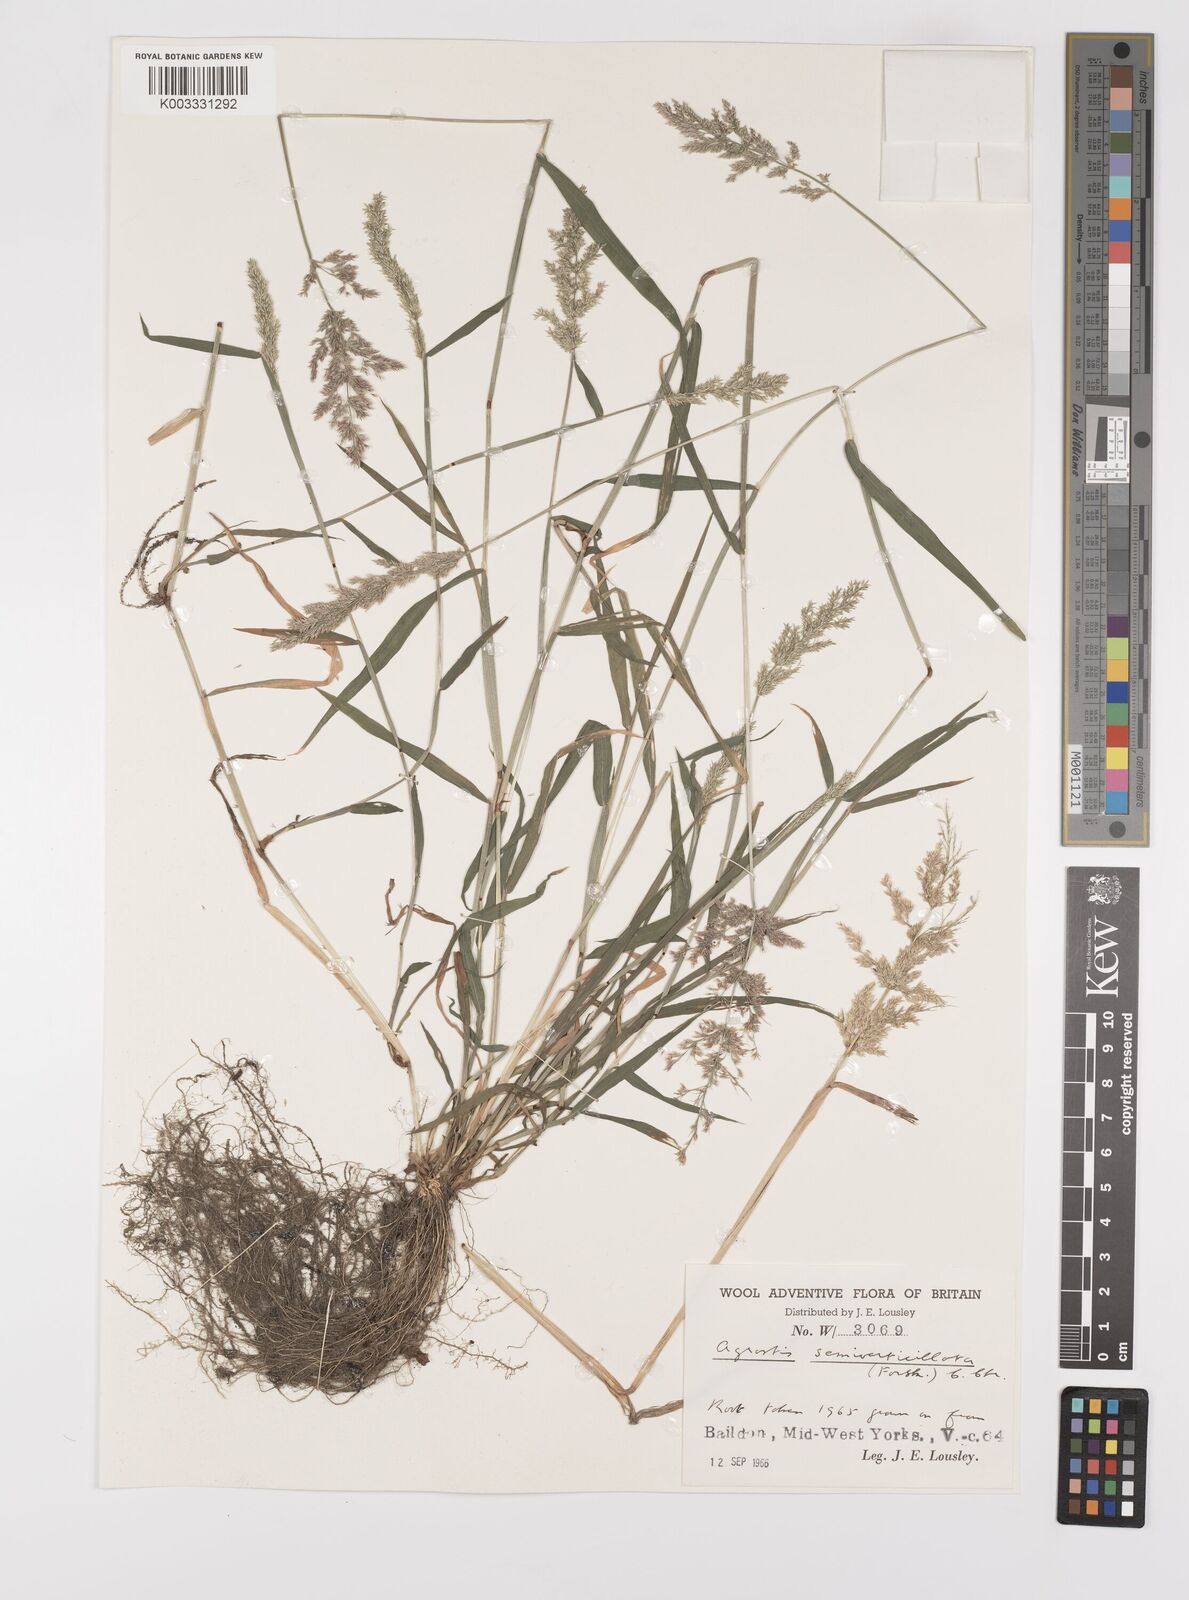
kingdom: Plantae
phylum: Tracheophyta
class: Liliopsida
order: Poales
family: Poaceae
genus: Polypogon
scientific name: Polypogon viridis
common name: Water bent
